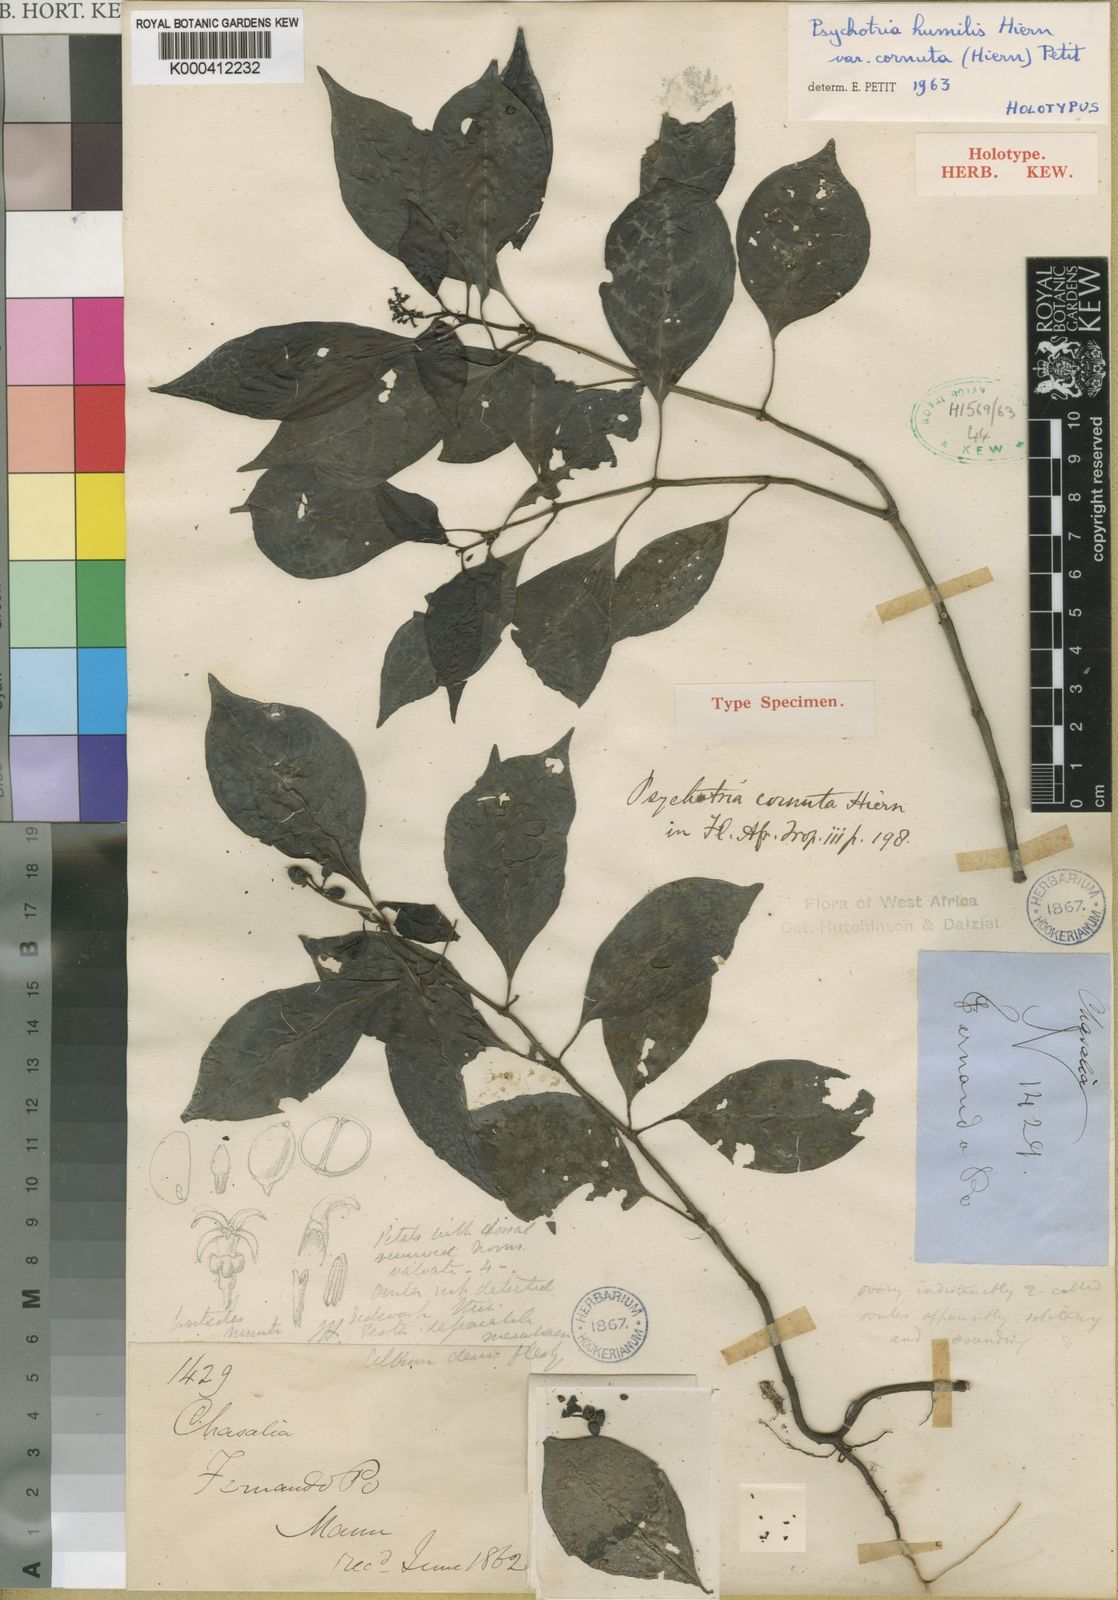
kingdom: Plantae
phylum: Tracheophyta
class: Magnoliopsida
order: Gentianales
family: Rubiaceae
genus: Psychotria
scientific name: Psychotria cornuta
